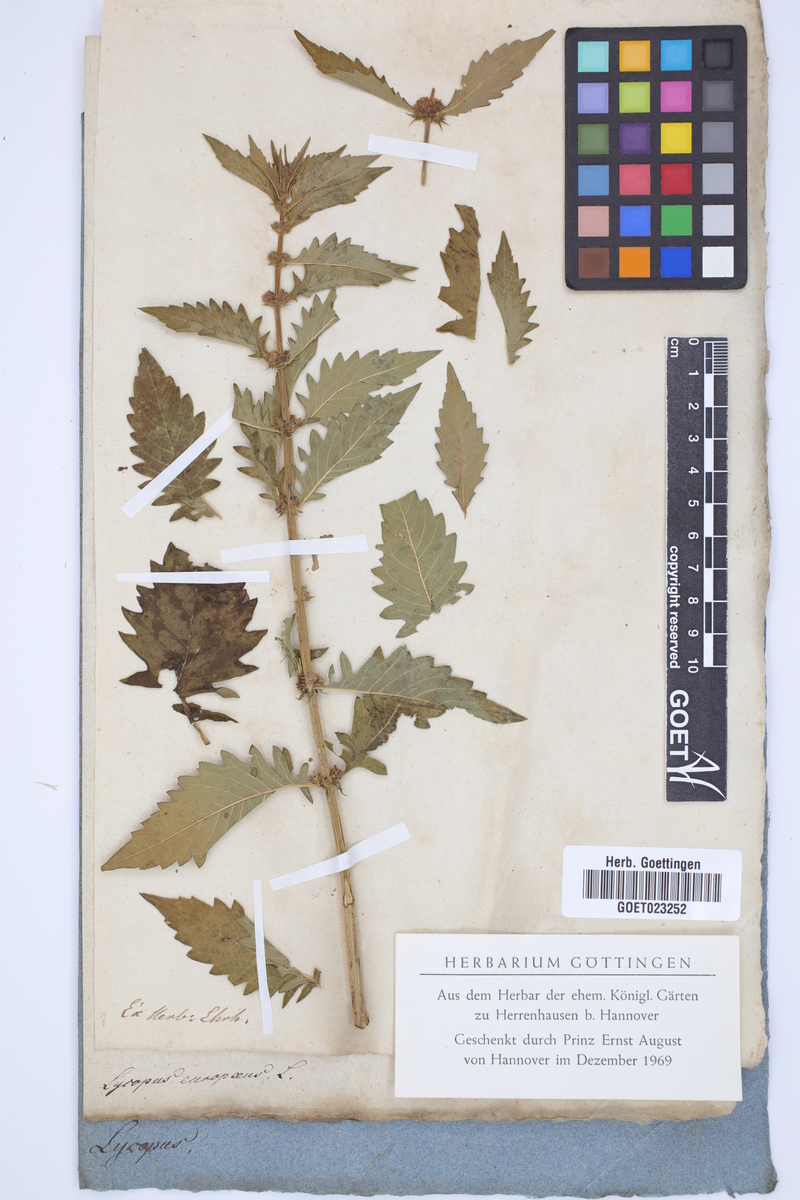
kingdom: Plantae
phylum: Tracheophyta
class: Magnoliopsida
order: Lamiales
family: Lamiaceae
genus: Lycopus
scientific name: Lycopus europaeus
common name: European bugleweed
